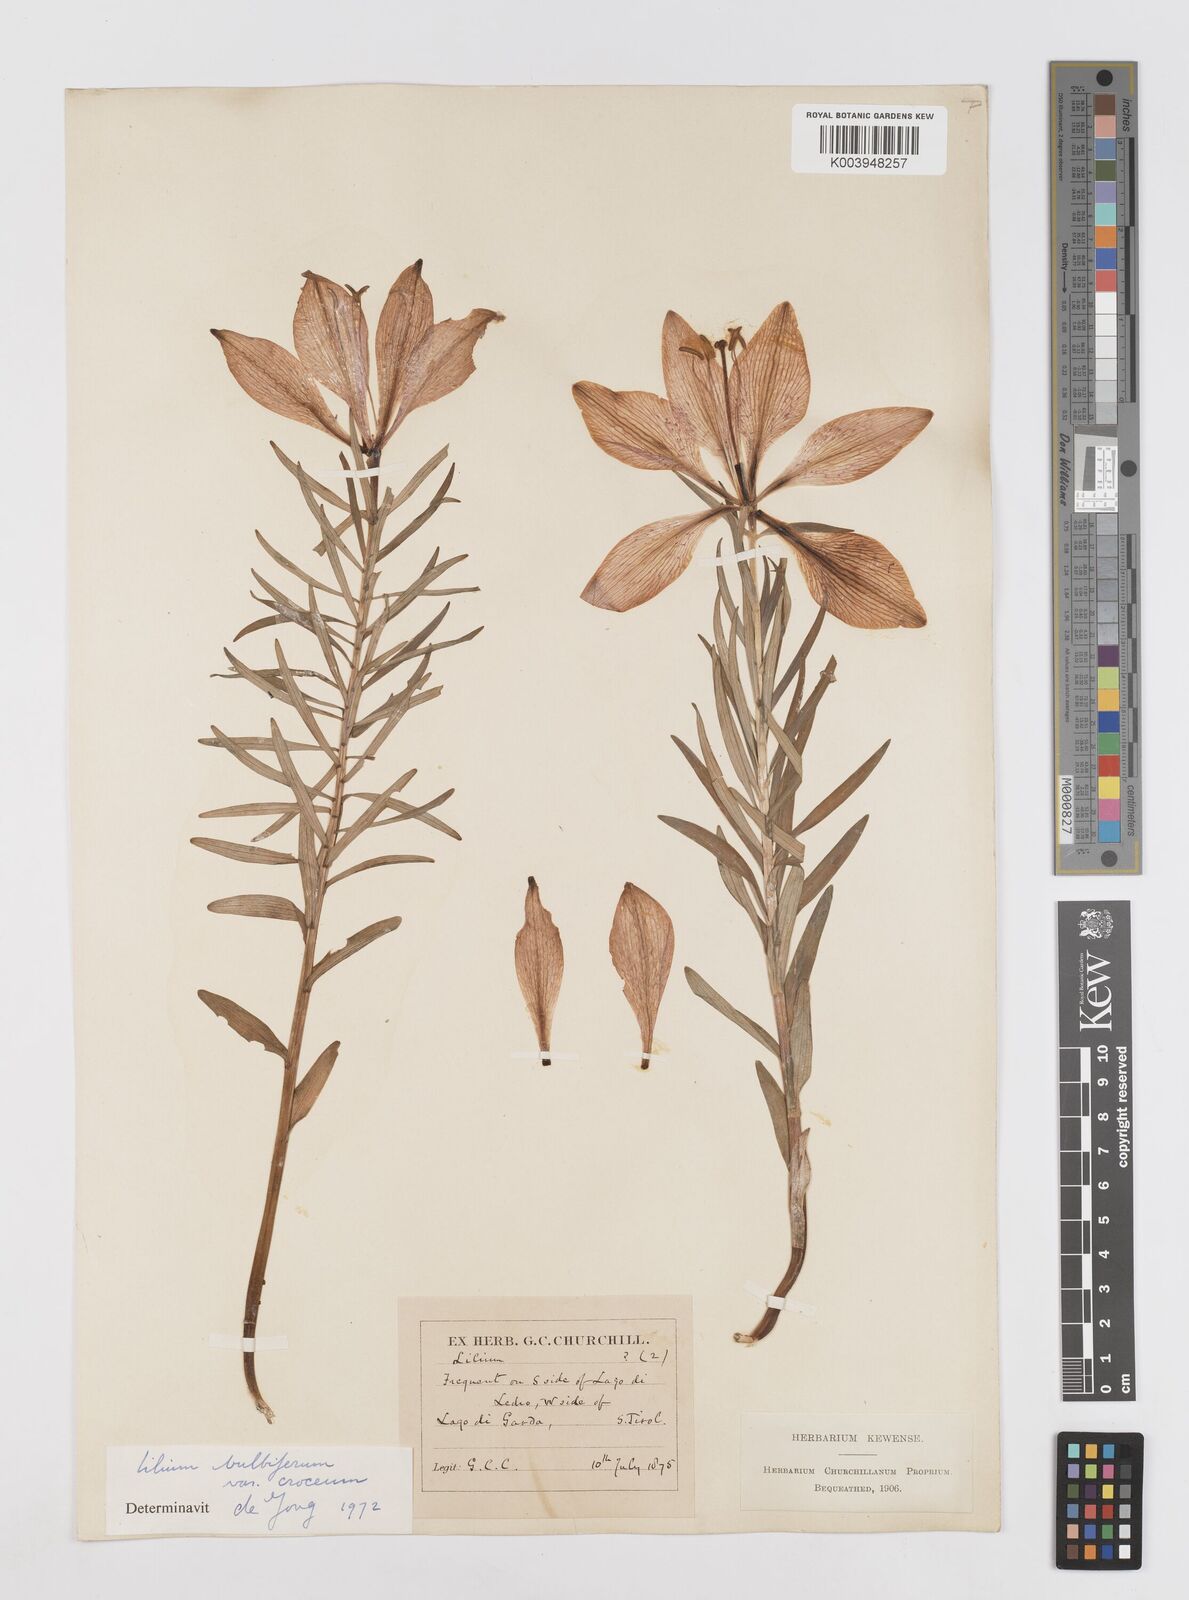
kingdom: Plantae
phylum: Tracheophyta
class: Liliopsida
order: Liliales
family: Liliaceae
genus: Lilium
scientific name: Lilium bulbiferum
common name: Orange lily
